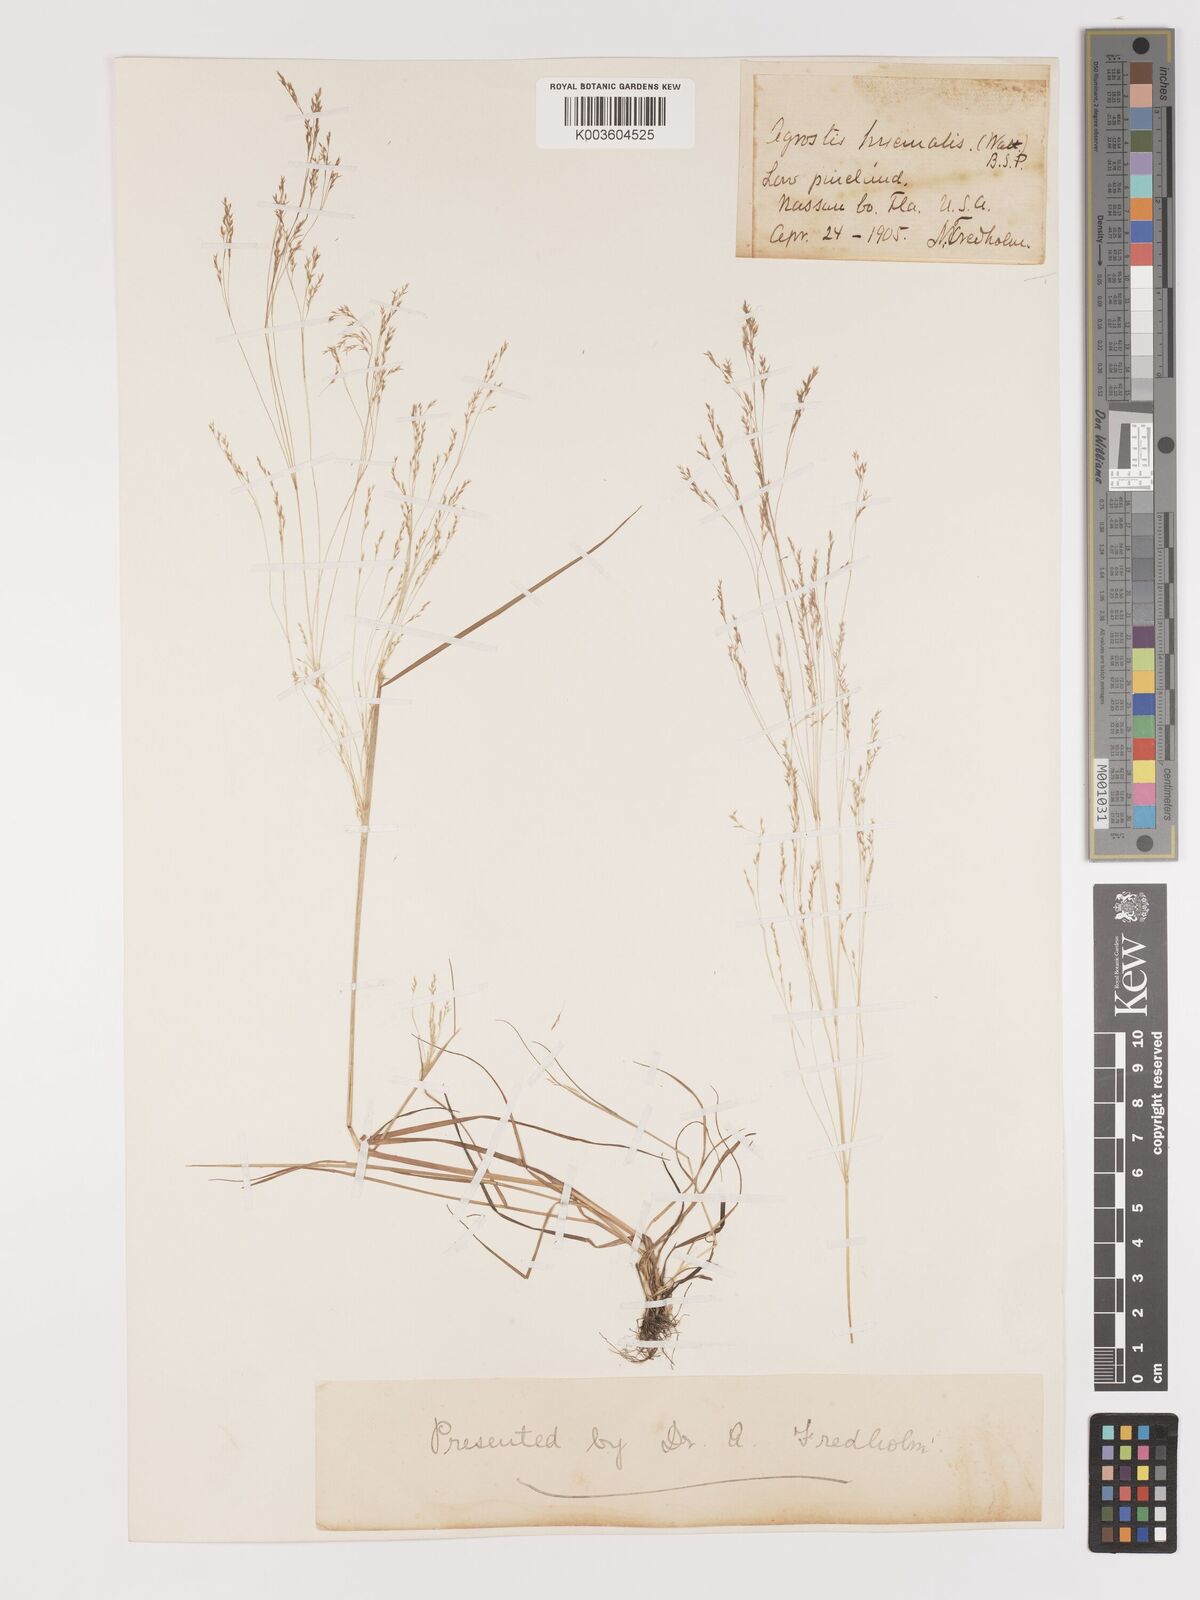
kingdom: Plantae
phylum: Tracheophyta
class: Liliopsida
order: Poales
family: Poaceae
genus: Agrostis
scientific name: Agrostis hyemalis
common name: Small bent
